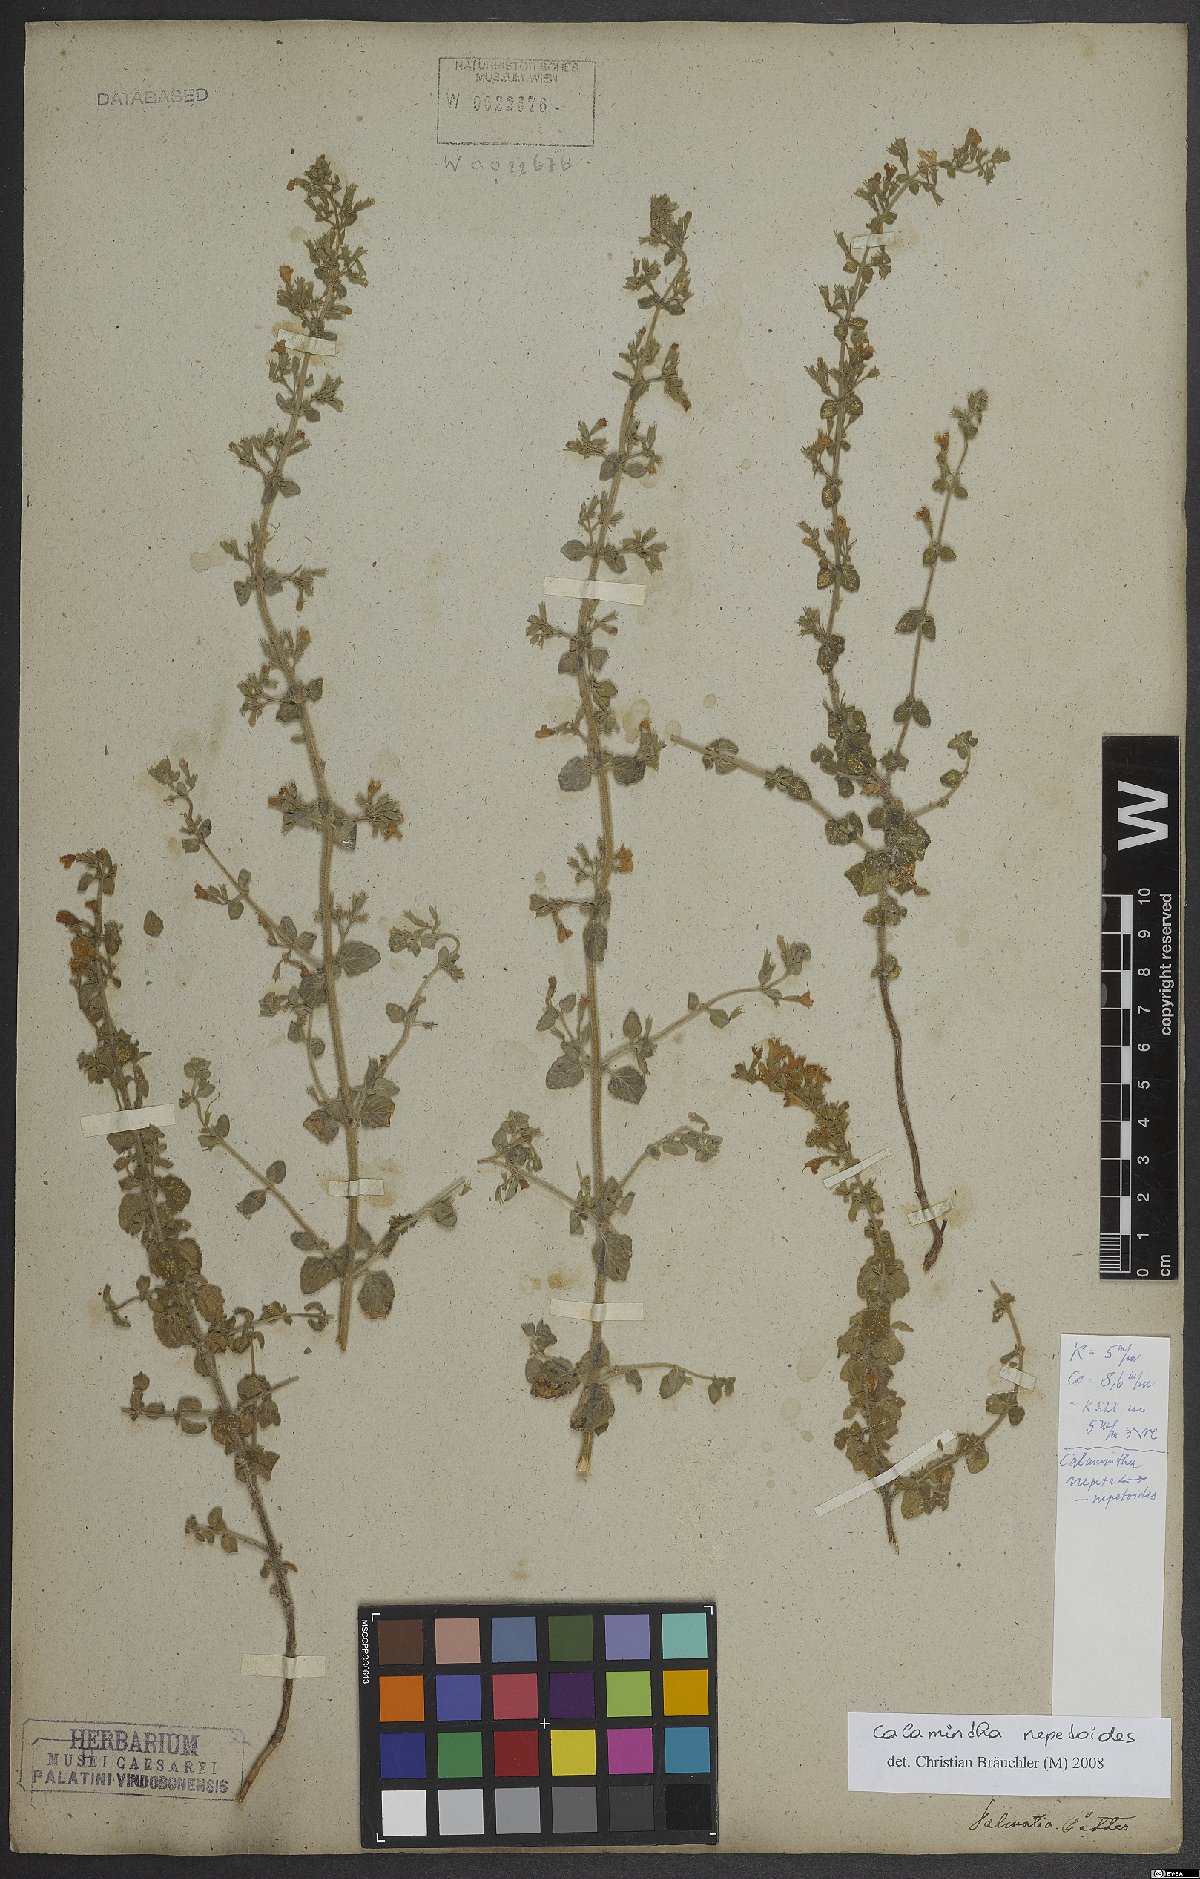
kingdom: Plantae
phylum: Tracheophyta
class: Magnoliopsida
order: Lamiales
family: Lamiaceae
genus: Clinopodium
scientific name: Clinopodium nepeta
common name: Lesser calamint
